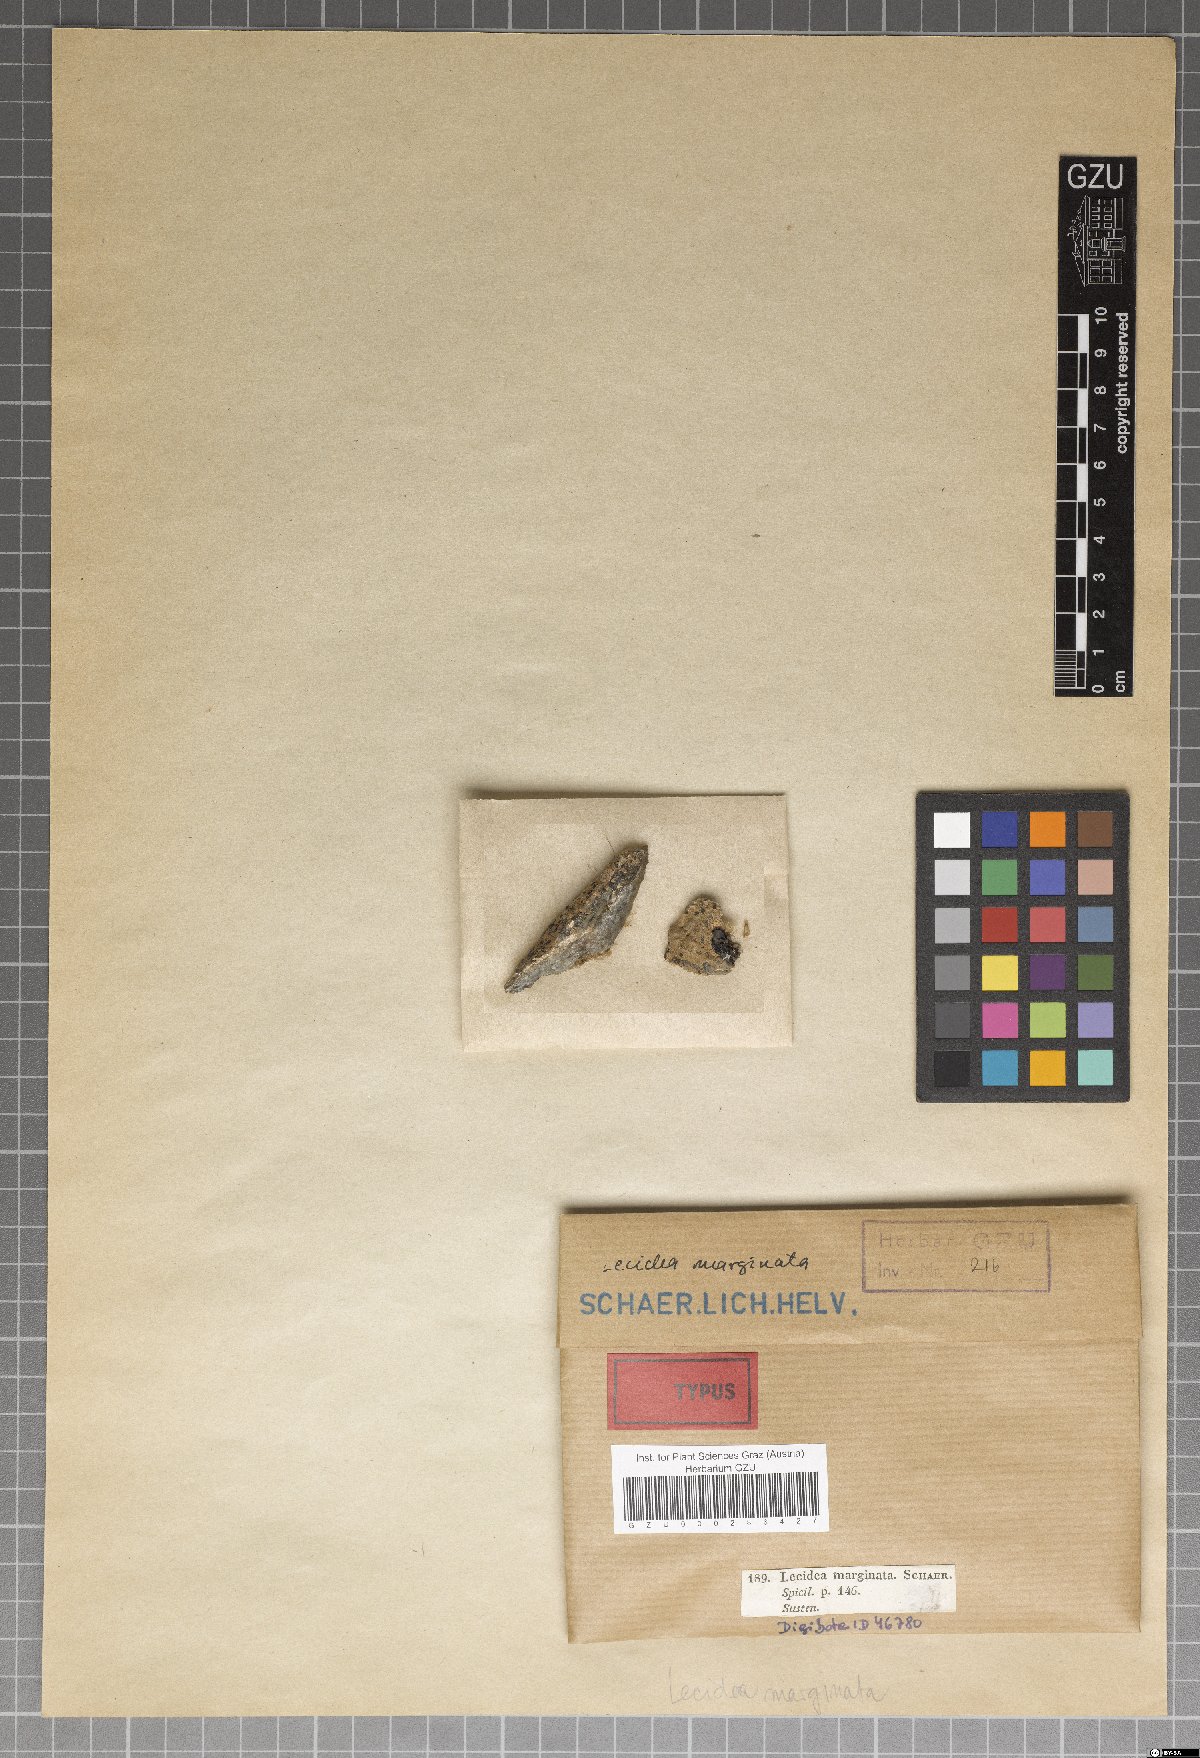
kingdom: Fungi
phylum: Ascomycota
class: Lecanoromycetes
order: Lecanorales
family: Lecanoraceae
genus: Lecanora
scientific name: Lecanora marginata
